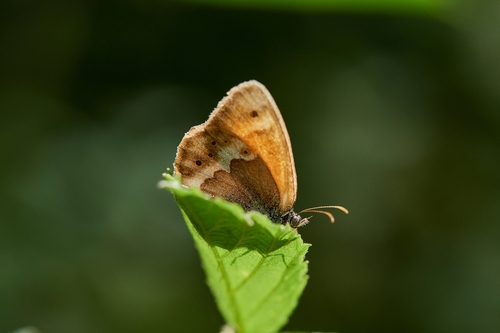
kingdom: Animalia
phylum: Arthropoda
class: Insecta
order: Lepidoptera
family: Nymphalidae
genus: Coenonympha
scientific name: Coenonympha dorus
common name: Dusky heath
